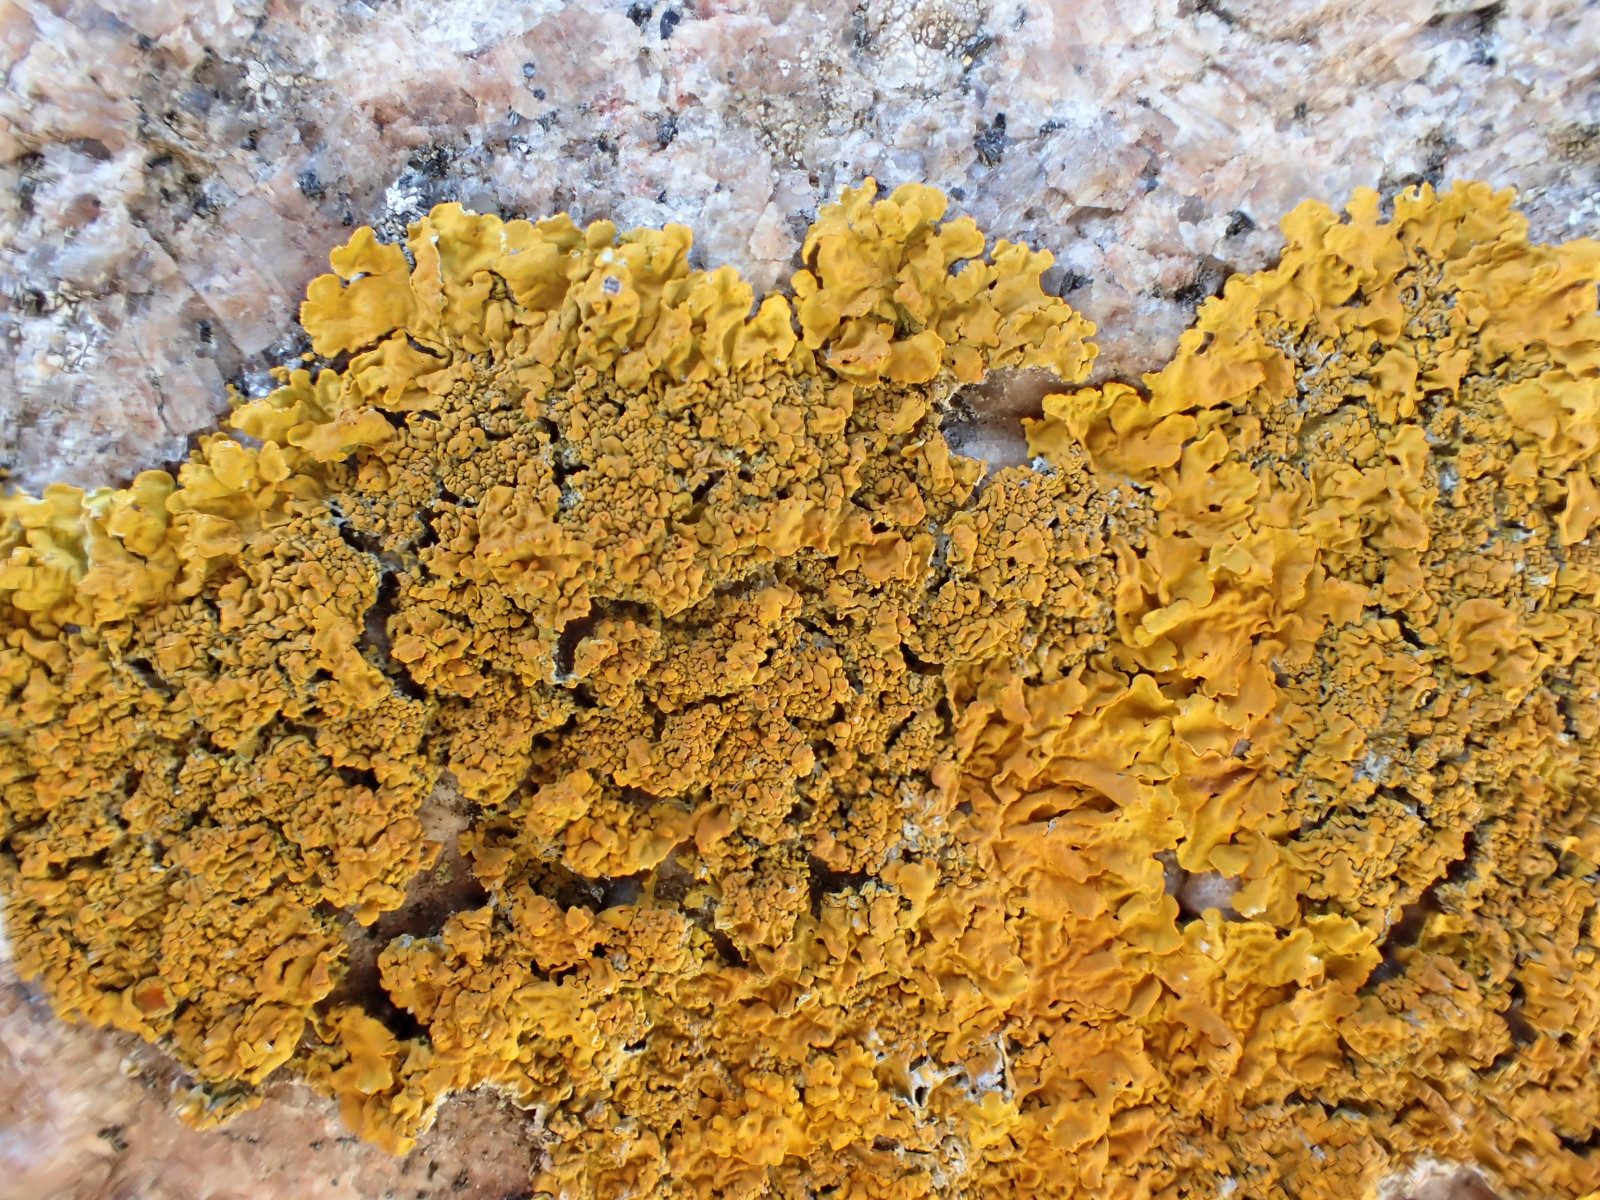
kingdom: Fungi
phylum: Ascomycota
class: Lecanoromycetes
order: Teloschistales
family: Teloschistaceae
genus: Xanthoria
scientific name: Xanthoria calcicola
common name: vortet væggelav
